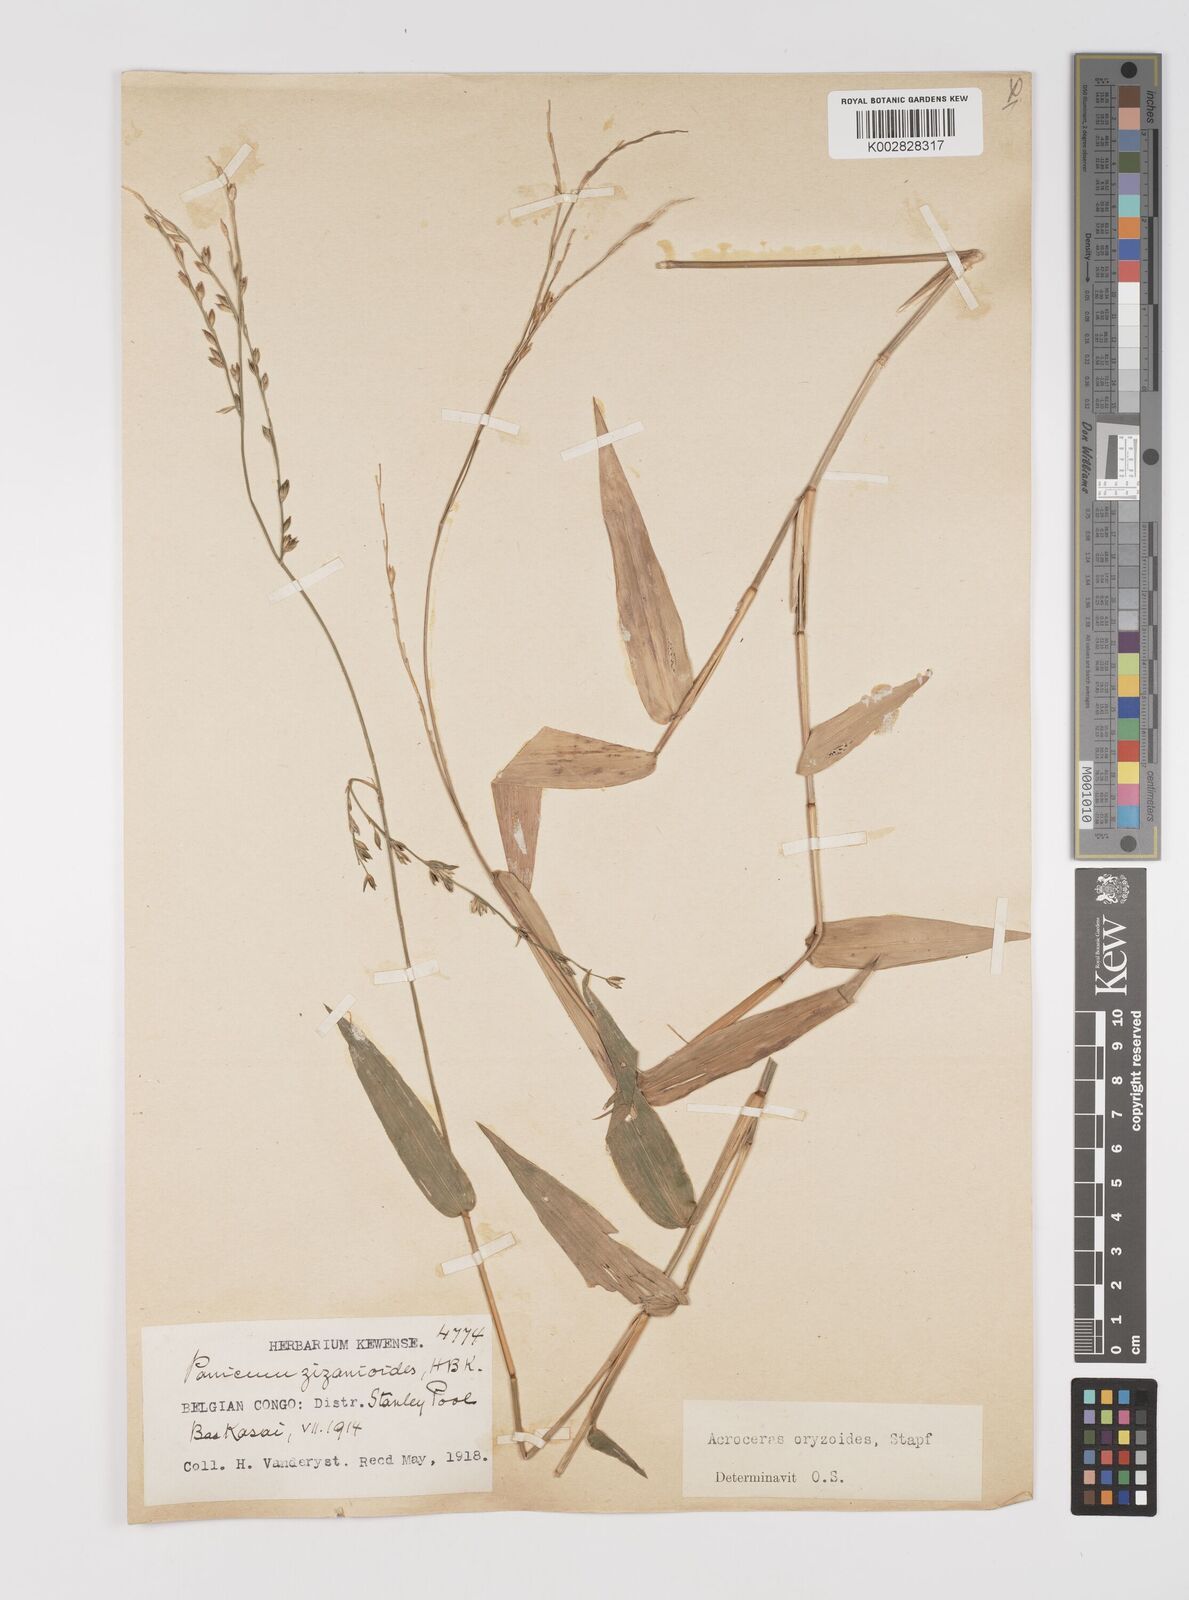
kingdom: Plantae
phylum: Tracheophyta
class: Liliopsida
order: Poales
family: Poaceae
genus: Acroceras
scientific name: Acroceras zizanioides
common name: Oat grass
